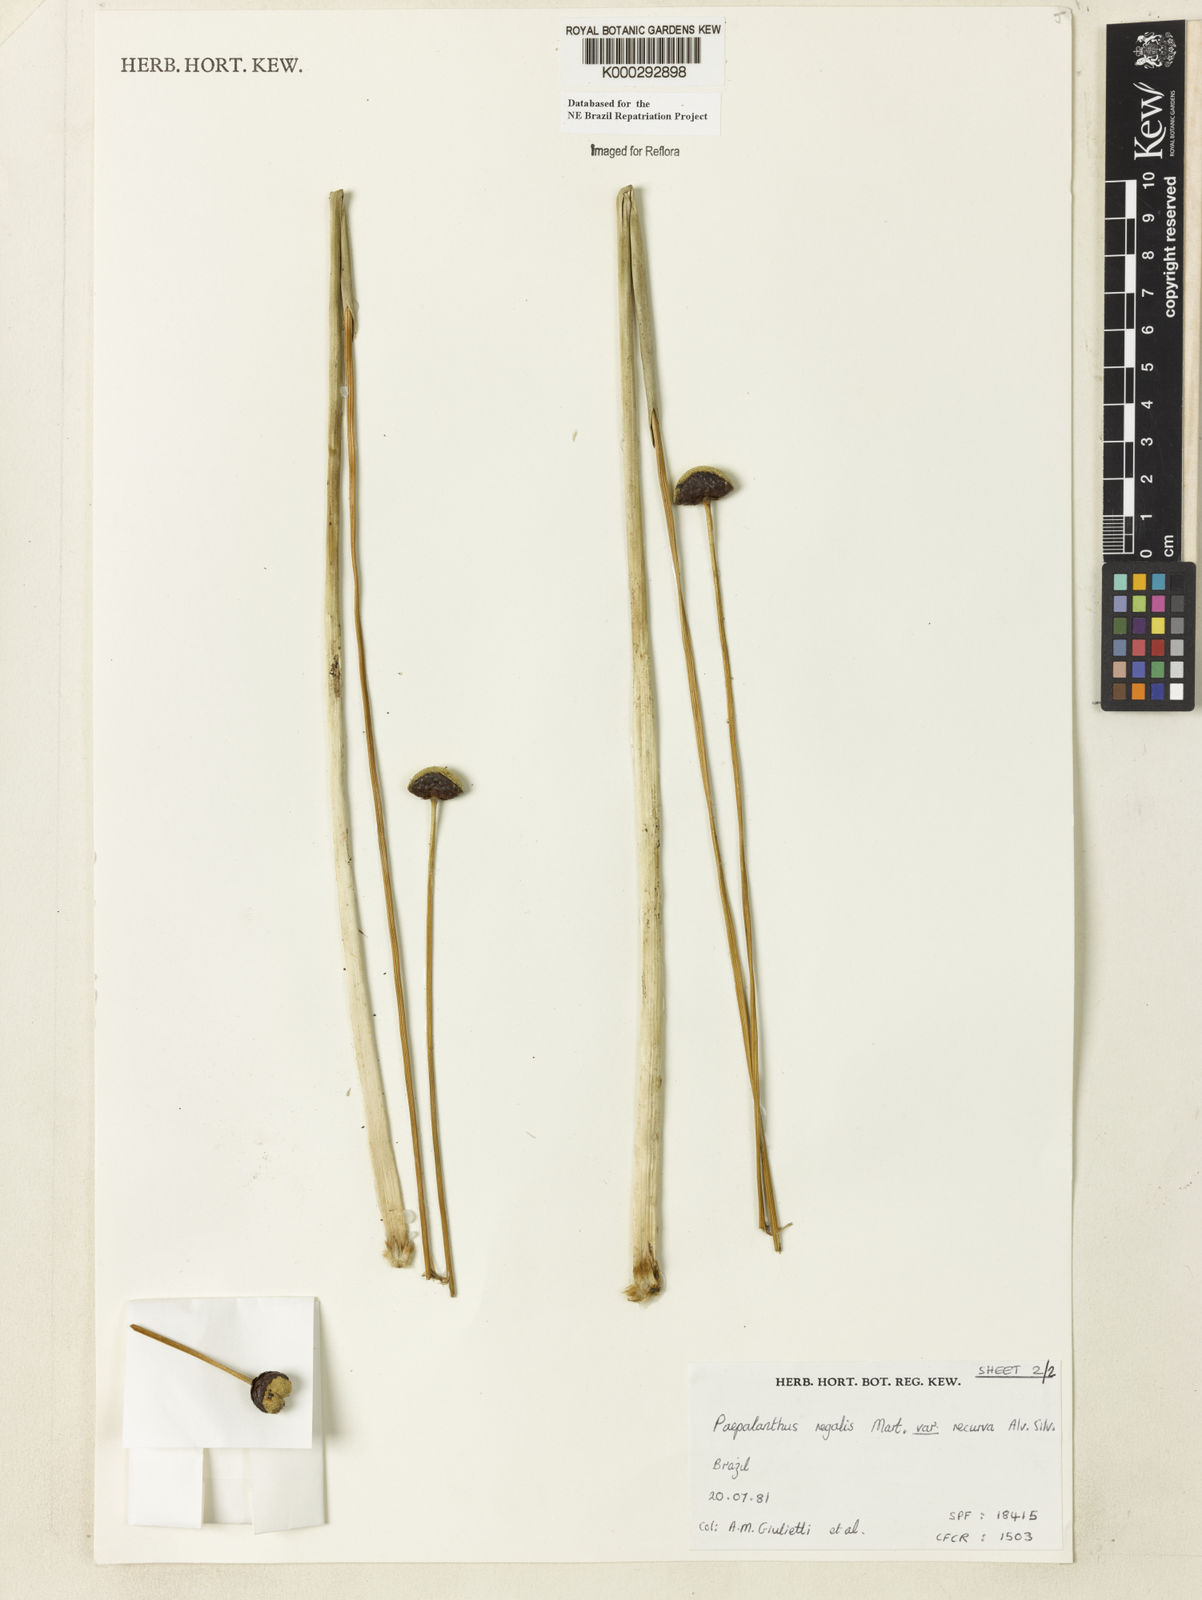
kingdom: Plantae
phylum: Tracheophyta
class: Liliopsida
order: Poales
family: Eriocaulaceae
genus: Paepalanthus
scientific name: Paepalanthus
